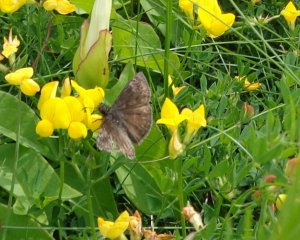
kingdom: Animalia
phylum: Arthropoda
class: Insecta
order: Lepidoptera
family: Hesperiidae
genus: Gesta
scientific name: Gesta
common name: Wild Indigo Duskywing
